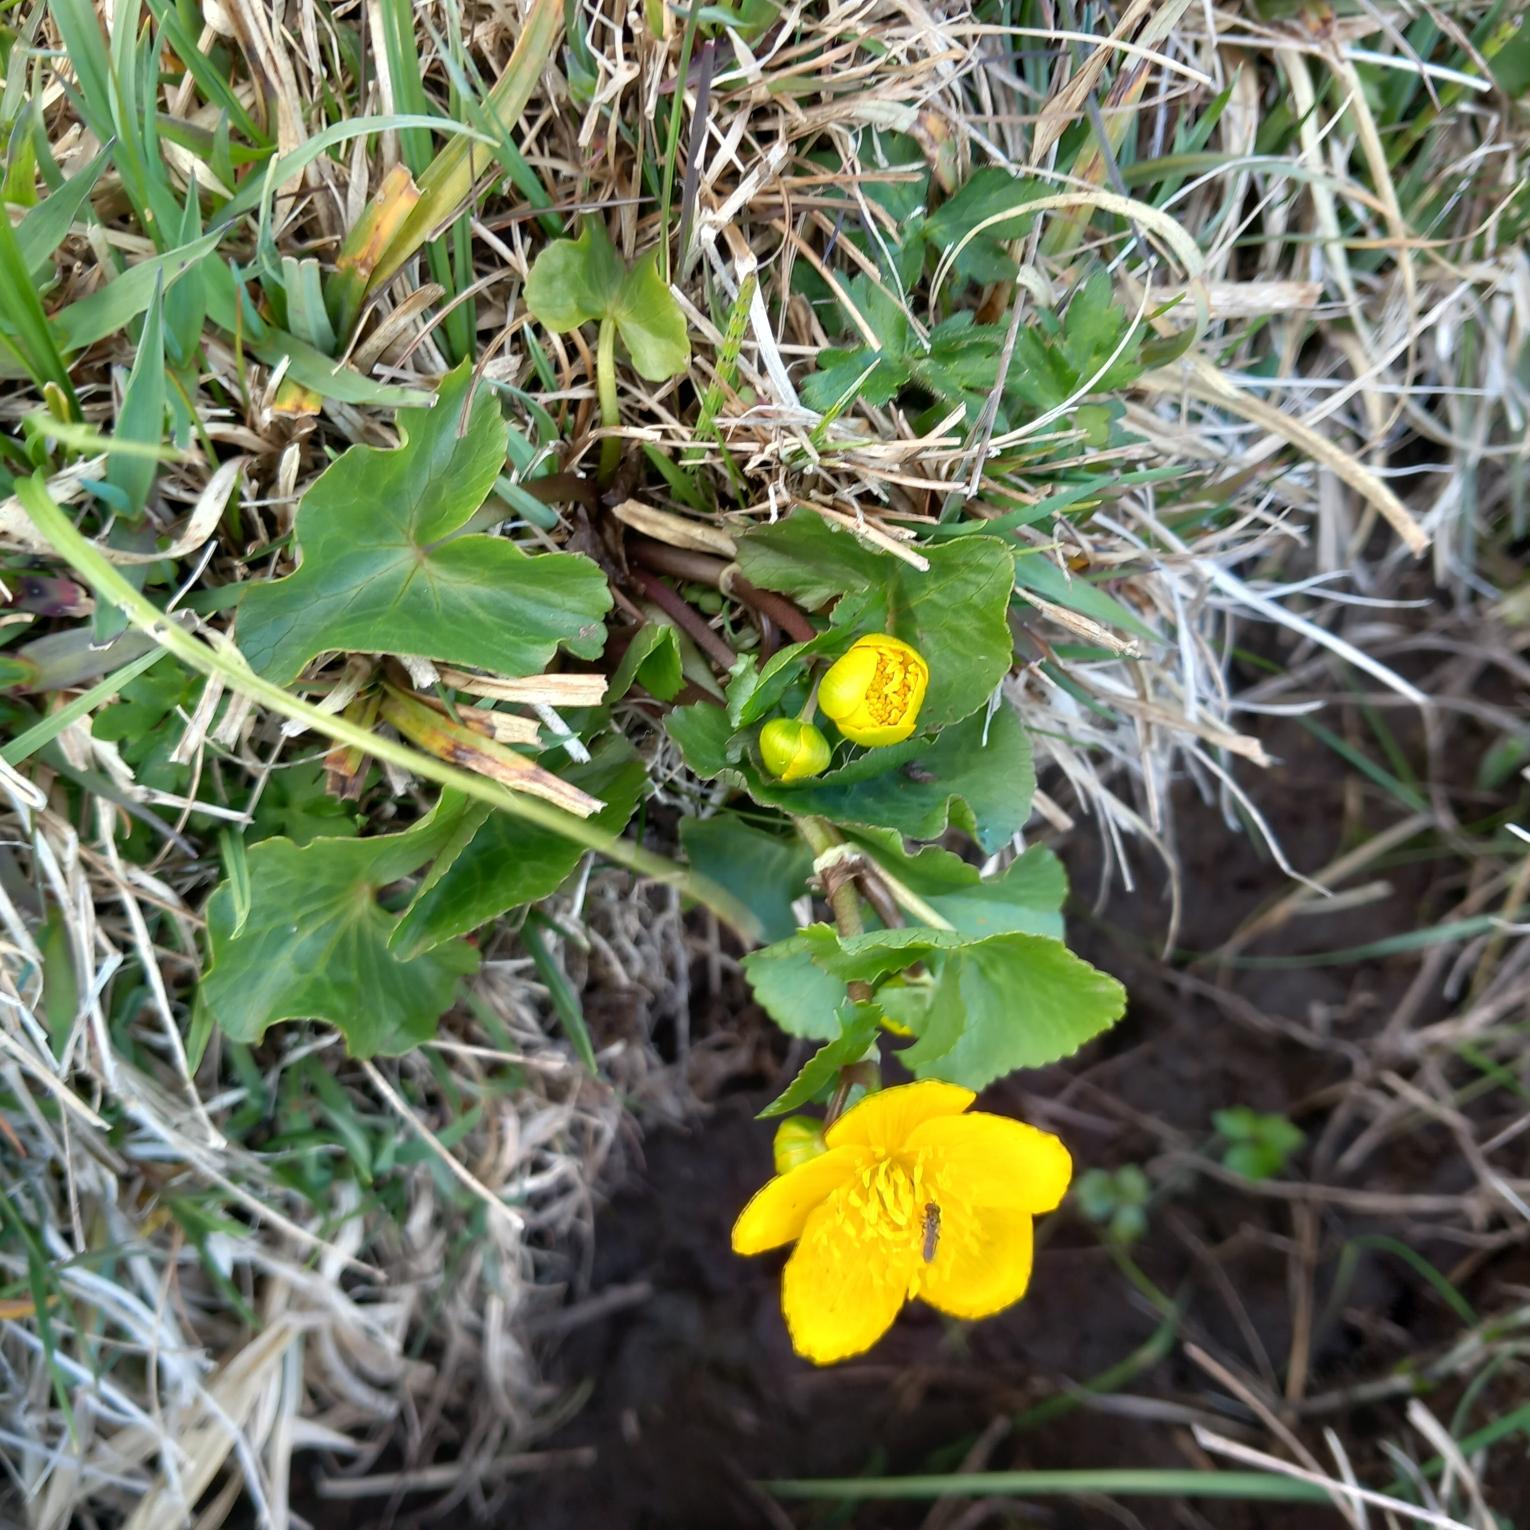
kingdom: Plantae
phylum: Tracheophyta
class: Magnoliopsida
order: Ranunculales
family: Ranunculaceae
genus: Caltha
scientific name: Caltha palustris
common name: Eng-kabbeleje
